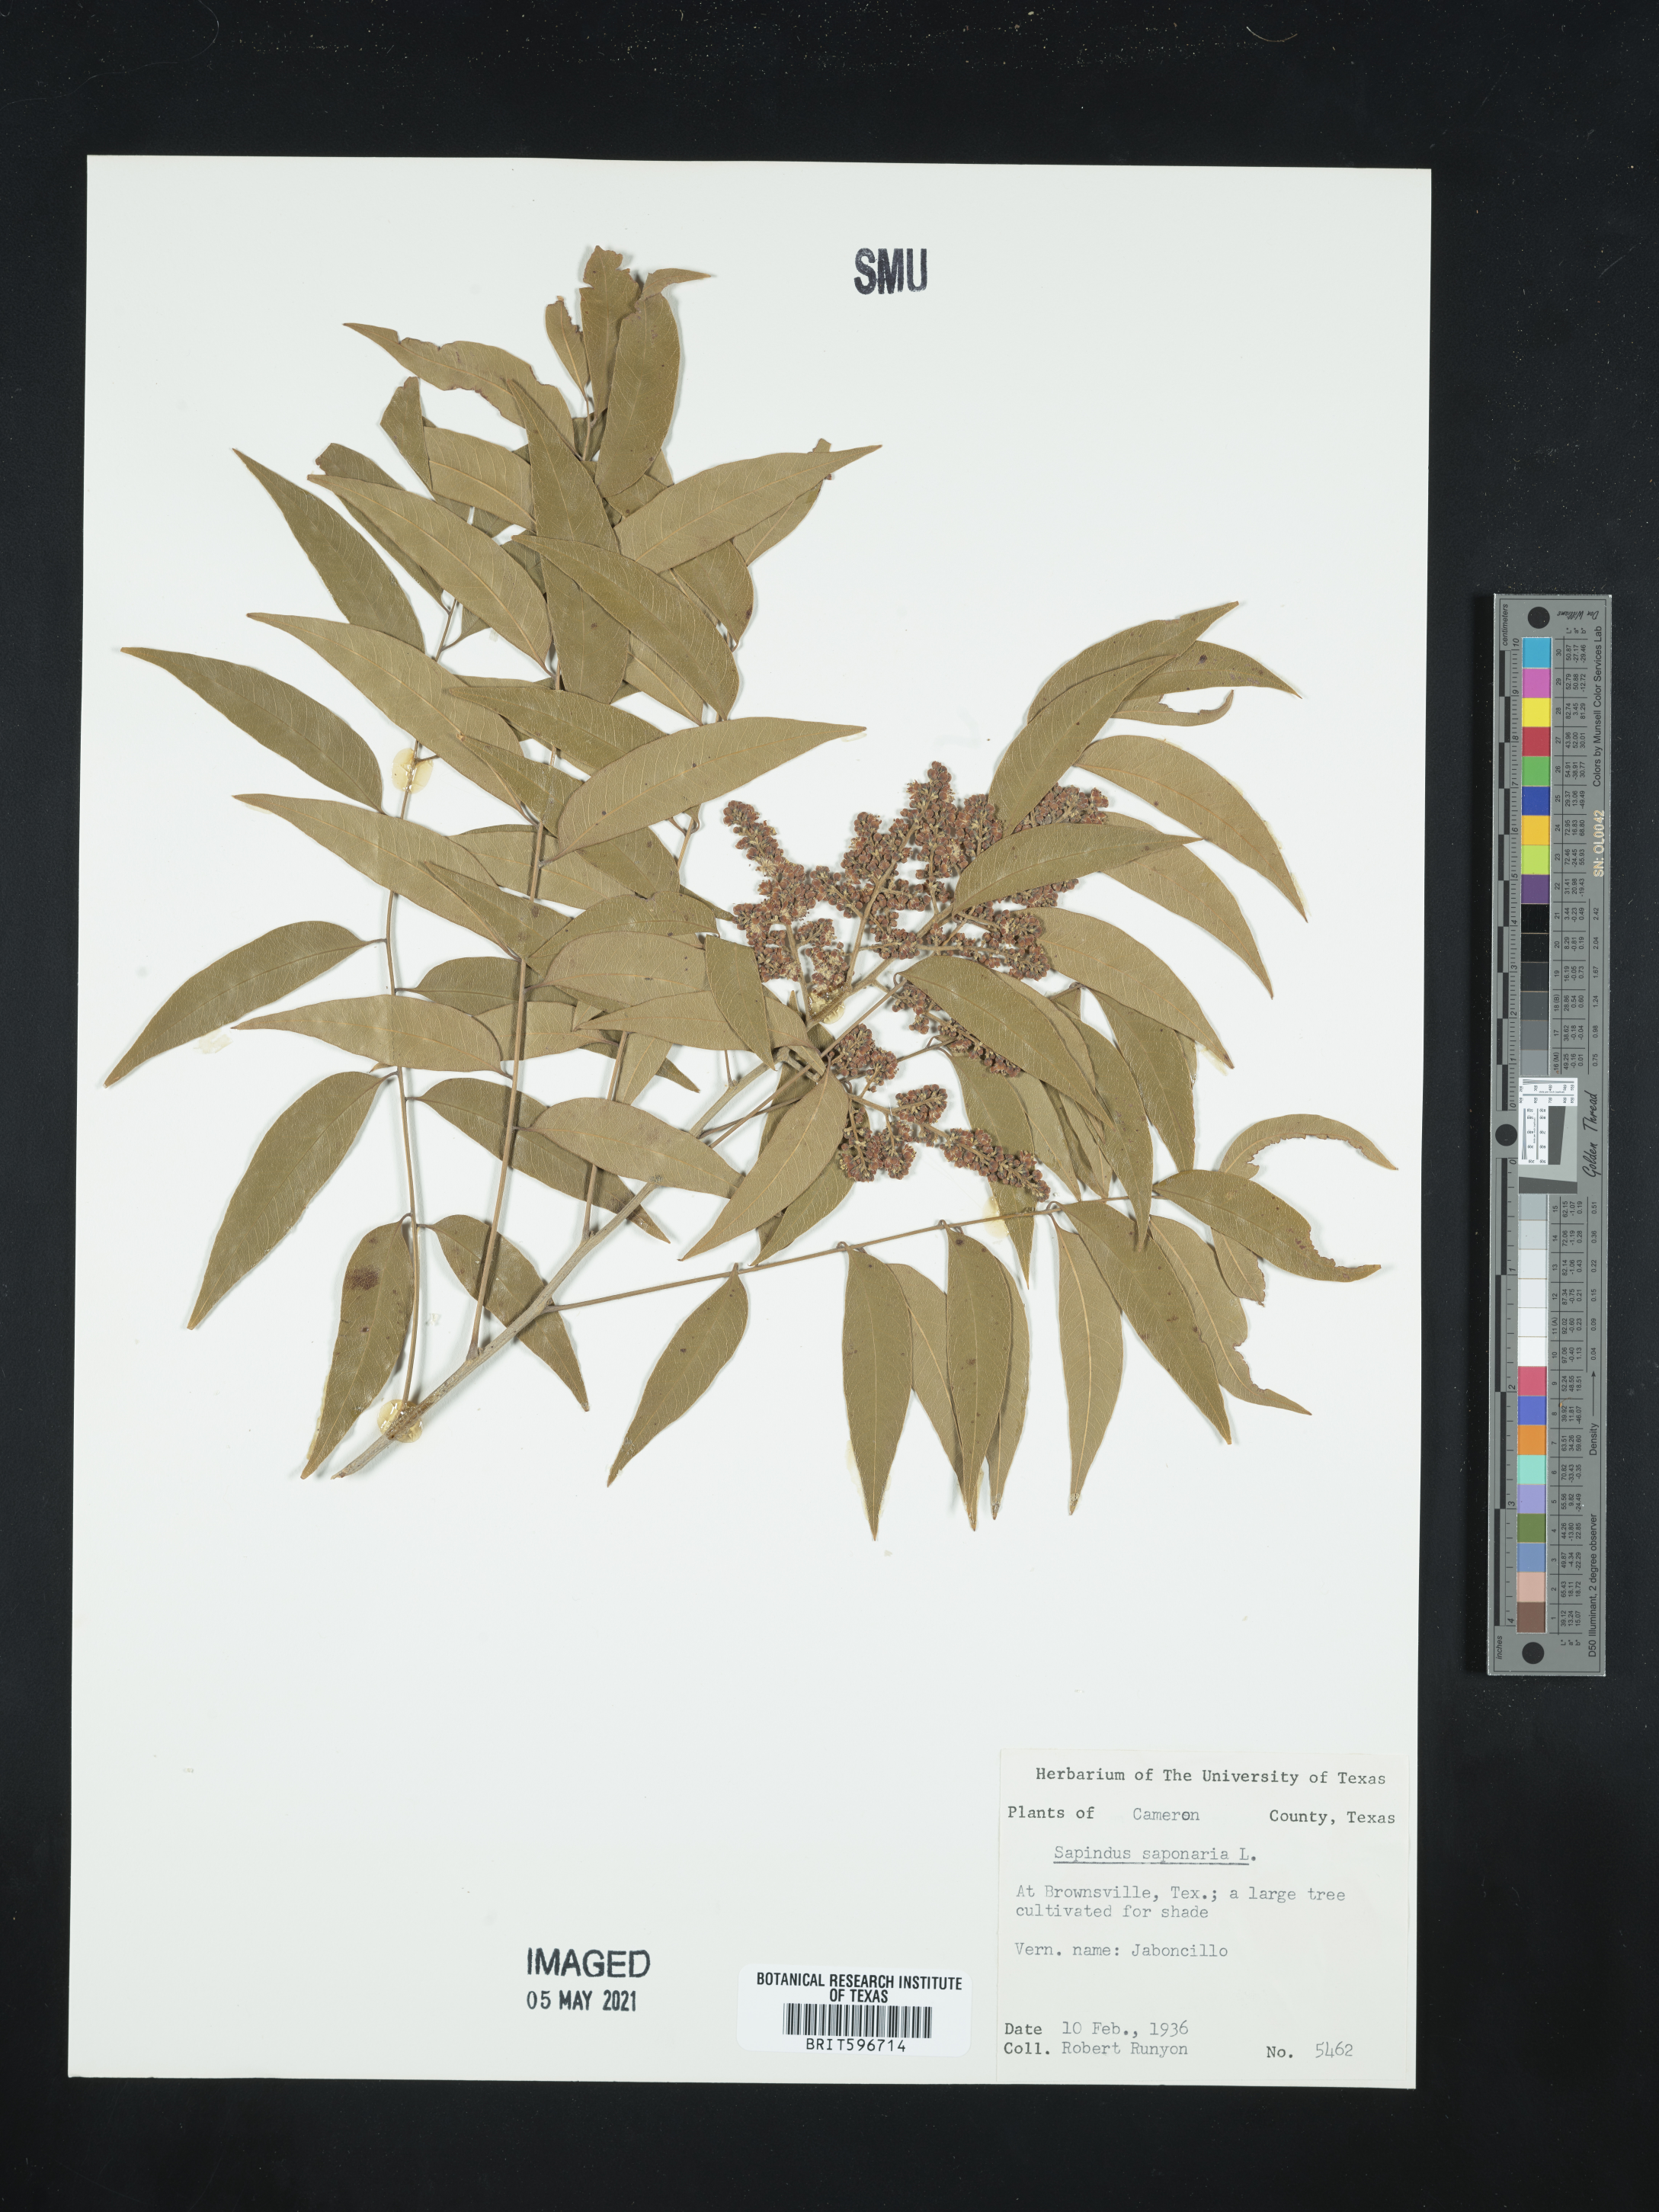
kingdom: Plantae
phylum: Tracheophyta
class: Magnoliopsida
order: Sapindales
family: Sapindaceae
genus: Sapindus
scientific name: Sapindus saponaria
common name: Wingleaf soapberry
